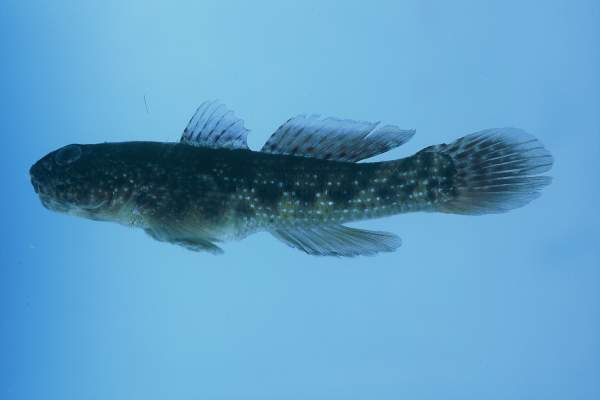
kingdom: Animalia
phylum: Chordata
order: Perciformes
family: Gobiidae
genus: Bathygobius
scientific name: Bathygobius coalitus
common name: Whitespotted goby
